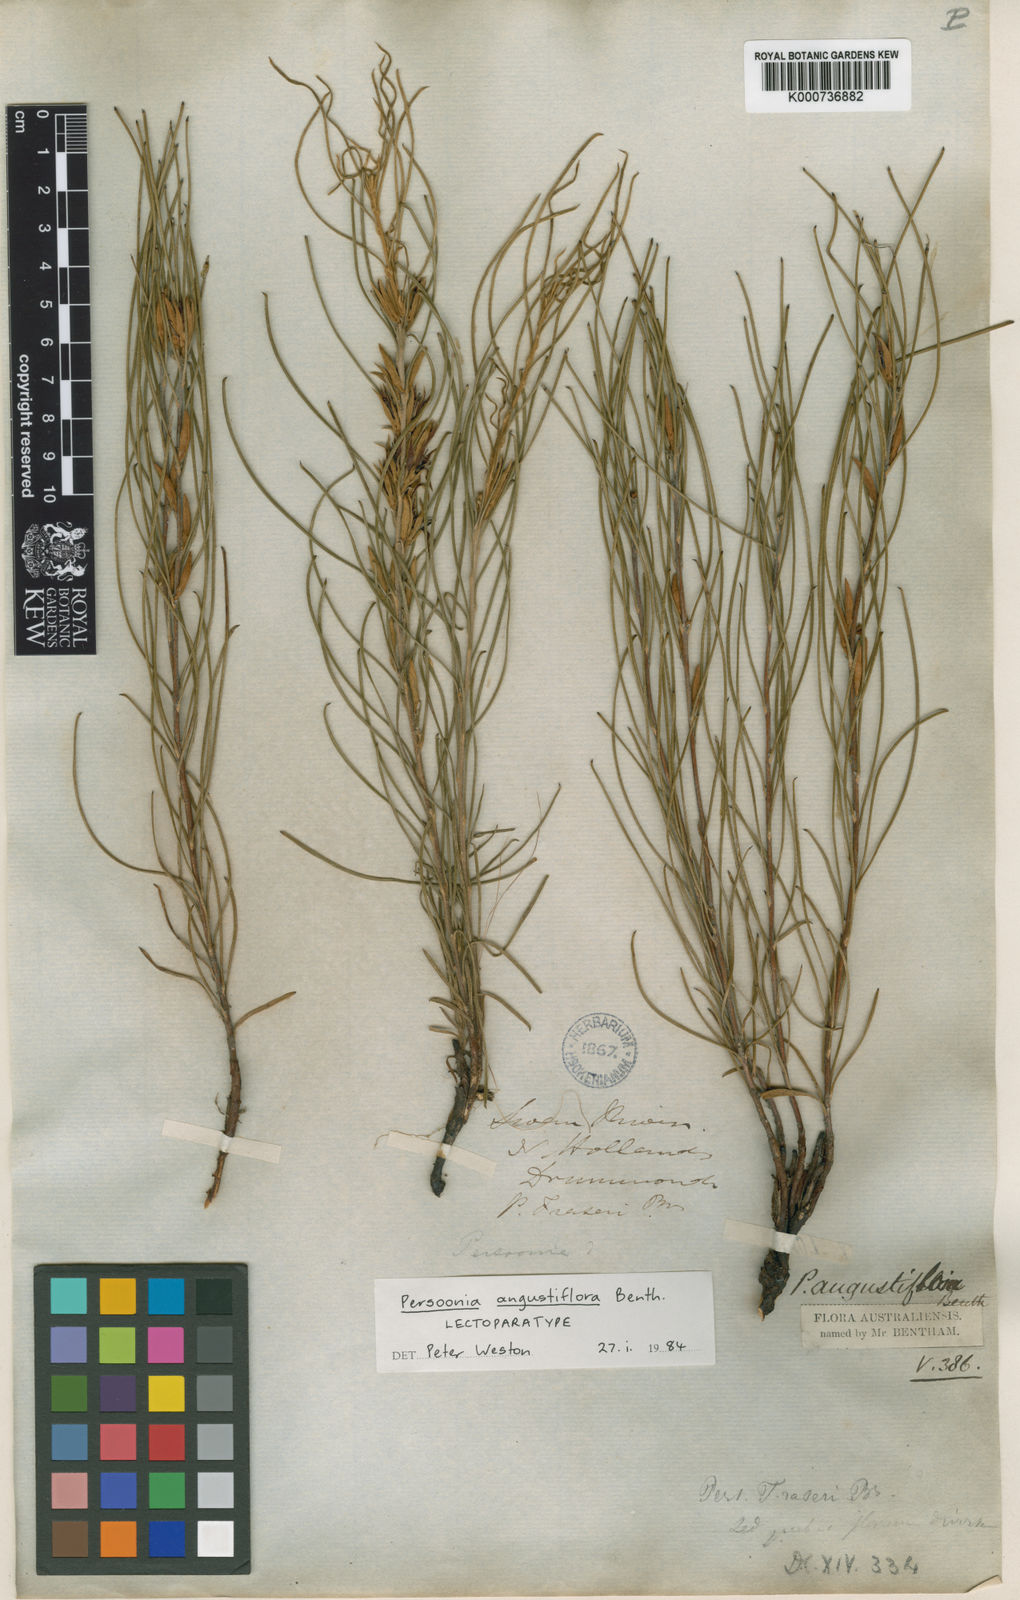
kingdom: Plantae
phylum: Tracheophyta
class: Magnoliopsida
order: Proteales
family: Proteaceae
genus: Persoonia
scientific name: Persoonia angustiflora
